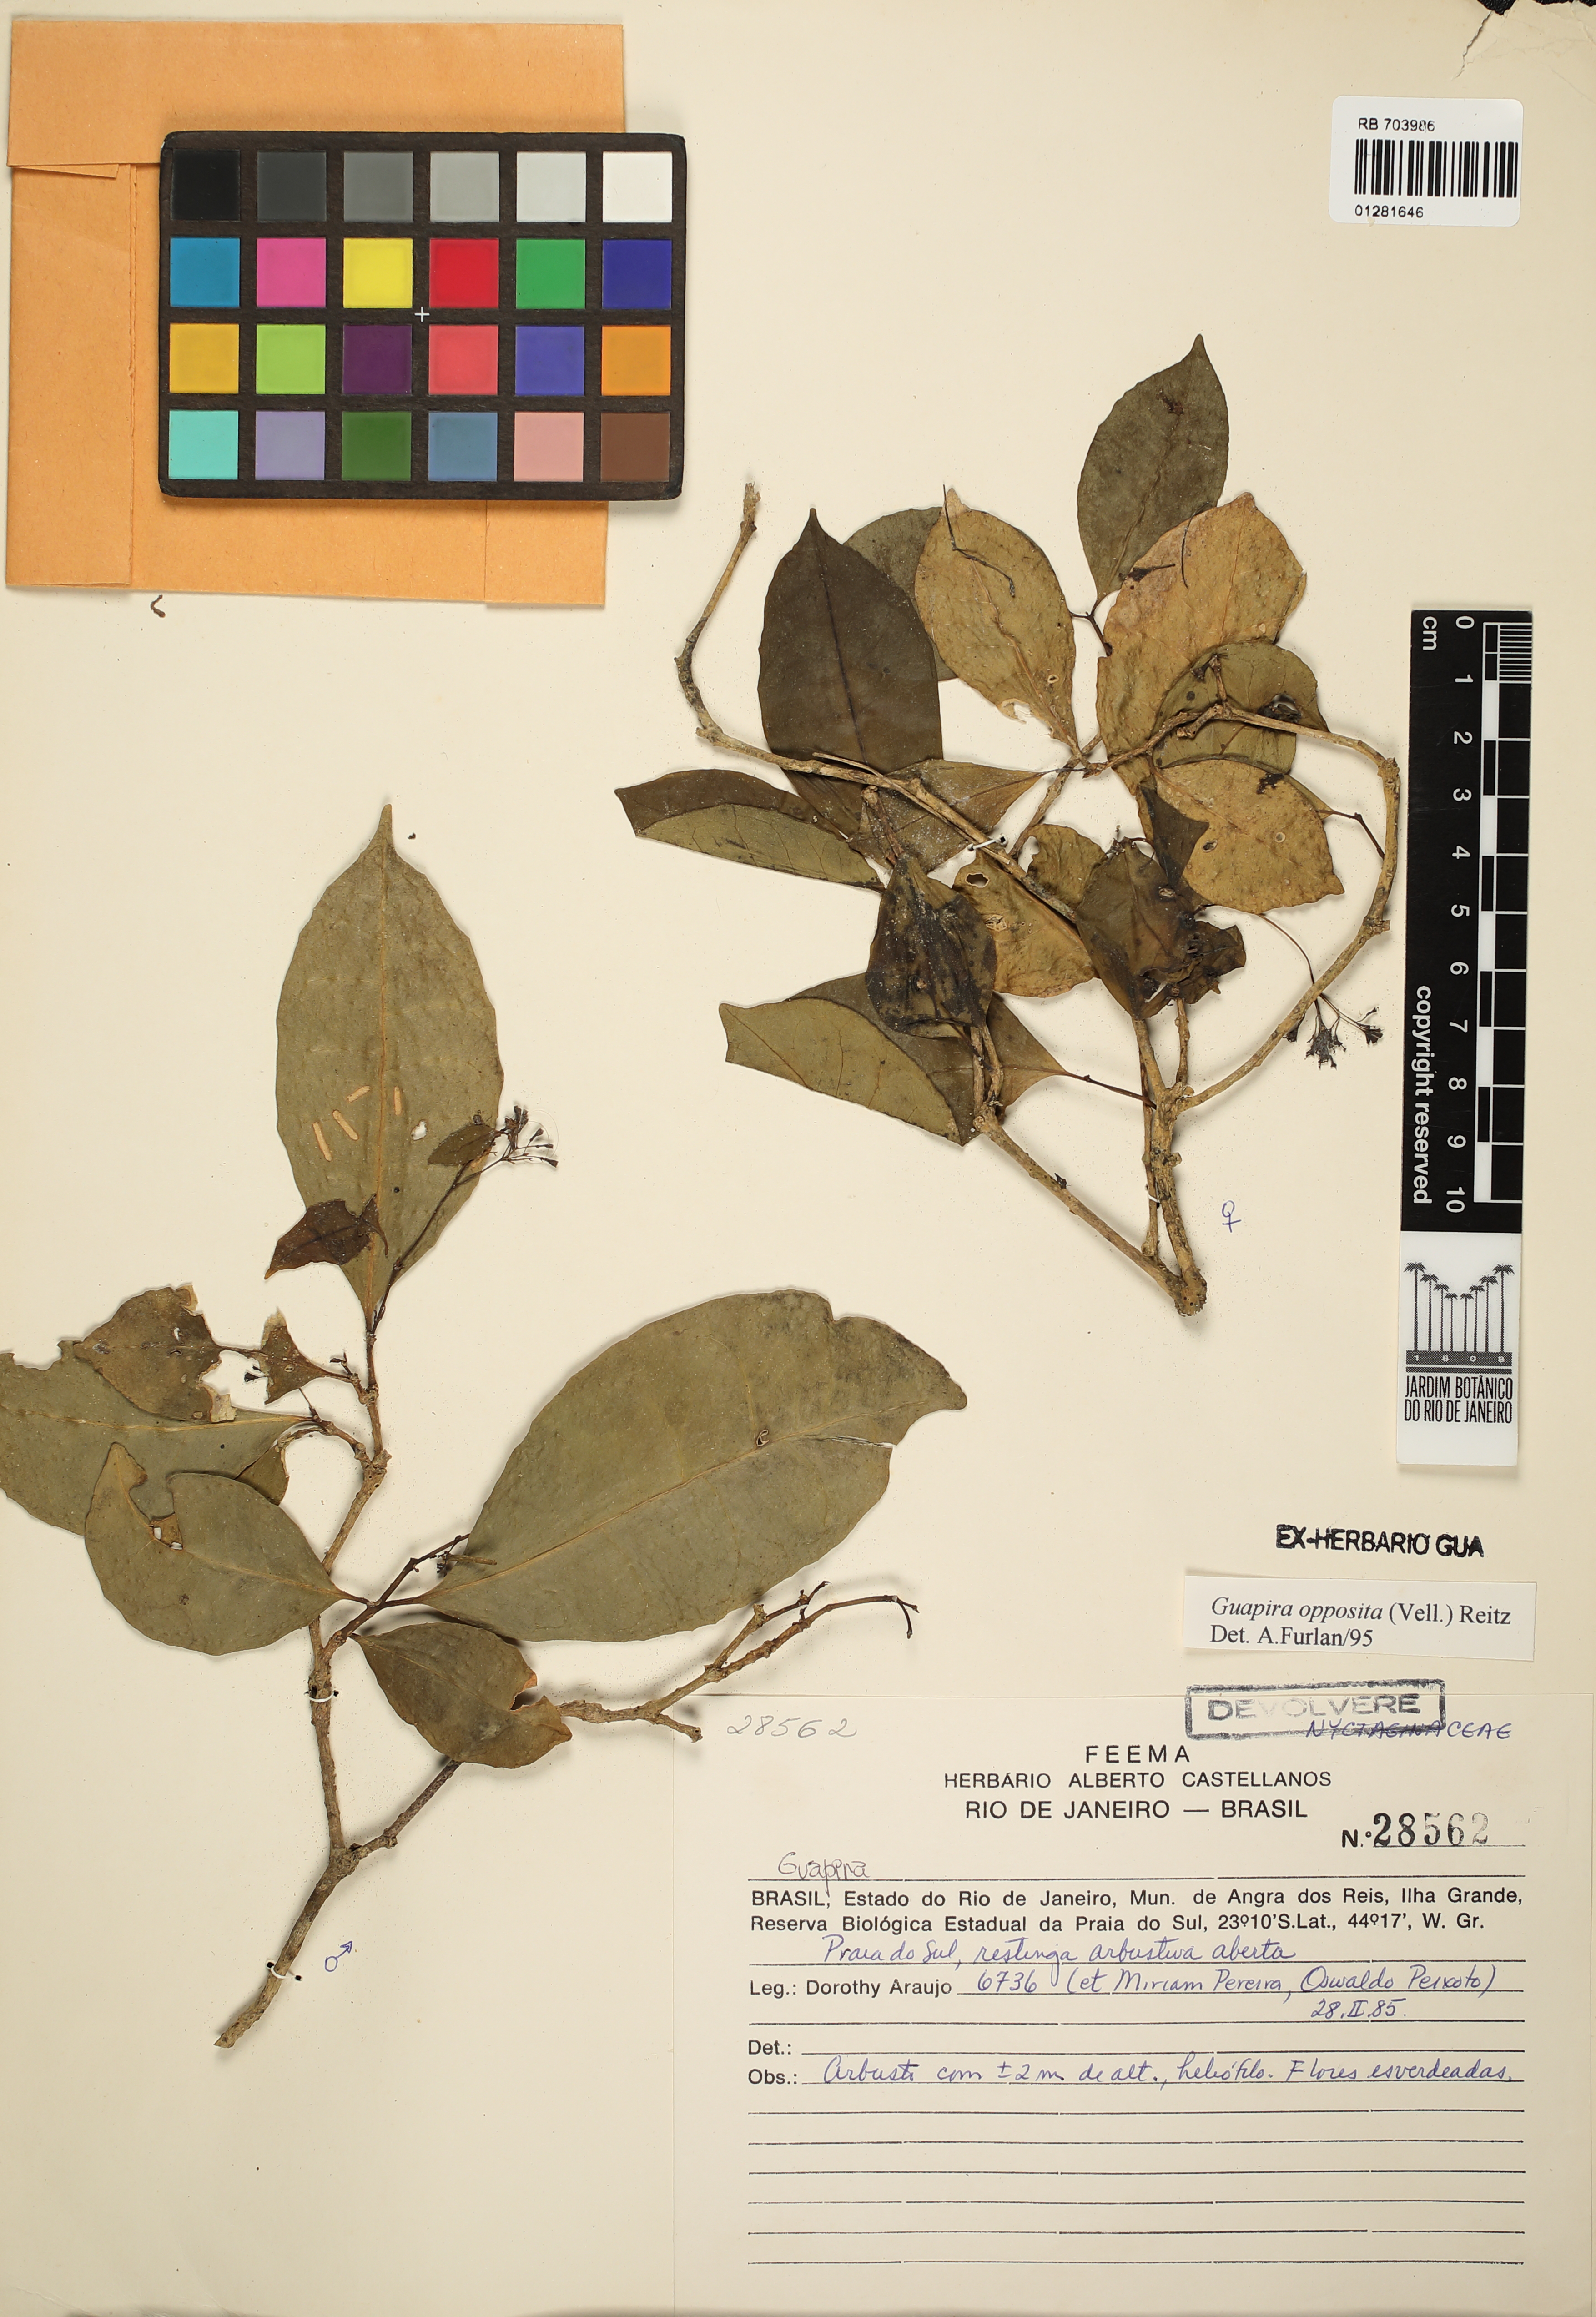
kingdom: Plantae
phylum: Tracheophyta
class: Magnoliopsida
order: Caryophyllales
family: Nyctaginaceae
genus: Guapira
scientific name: Guapira opposita
